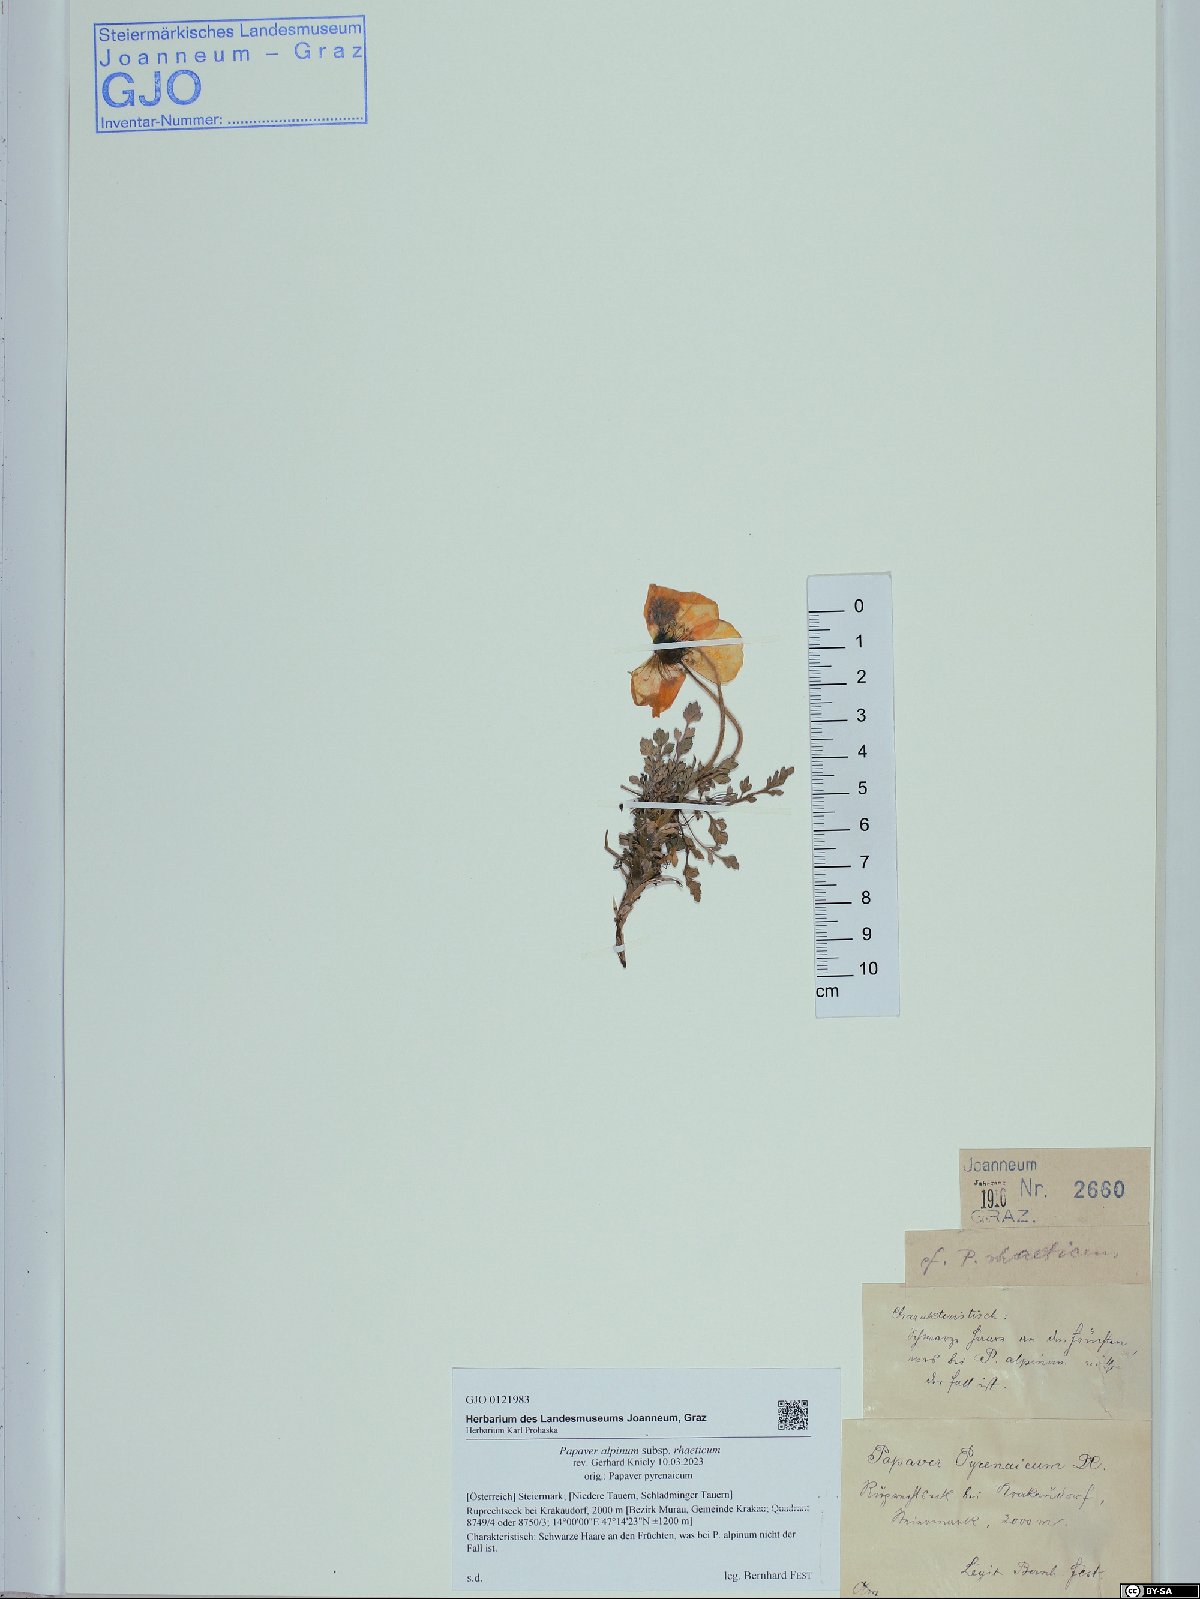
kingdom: Plantae
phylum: Tracheophyta
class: Magnoliopsida
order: Ranunculales
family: Papaveraceae
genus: Papaver
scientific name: Papaver alpinum
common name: Austrian poppy
